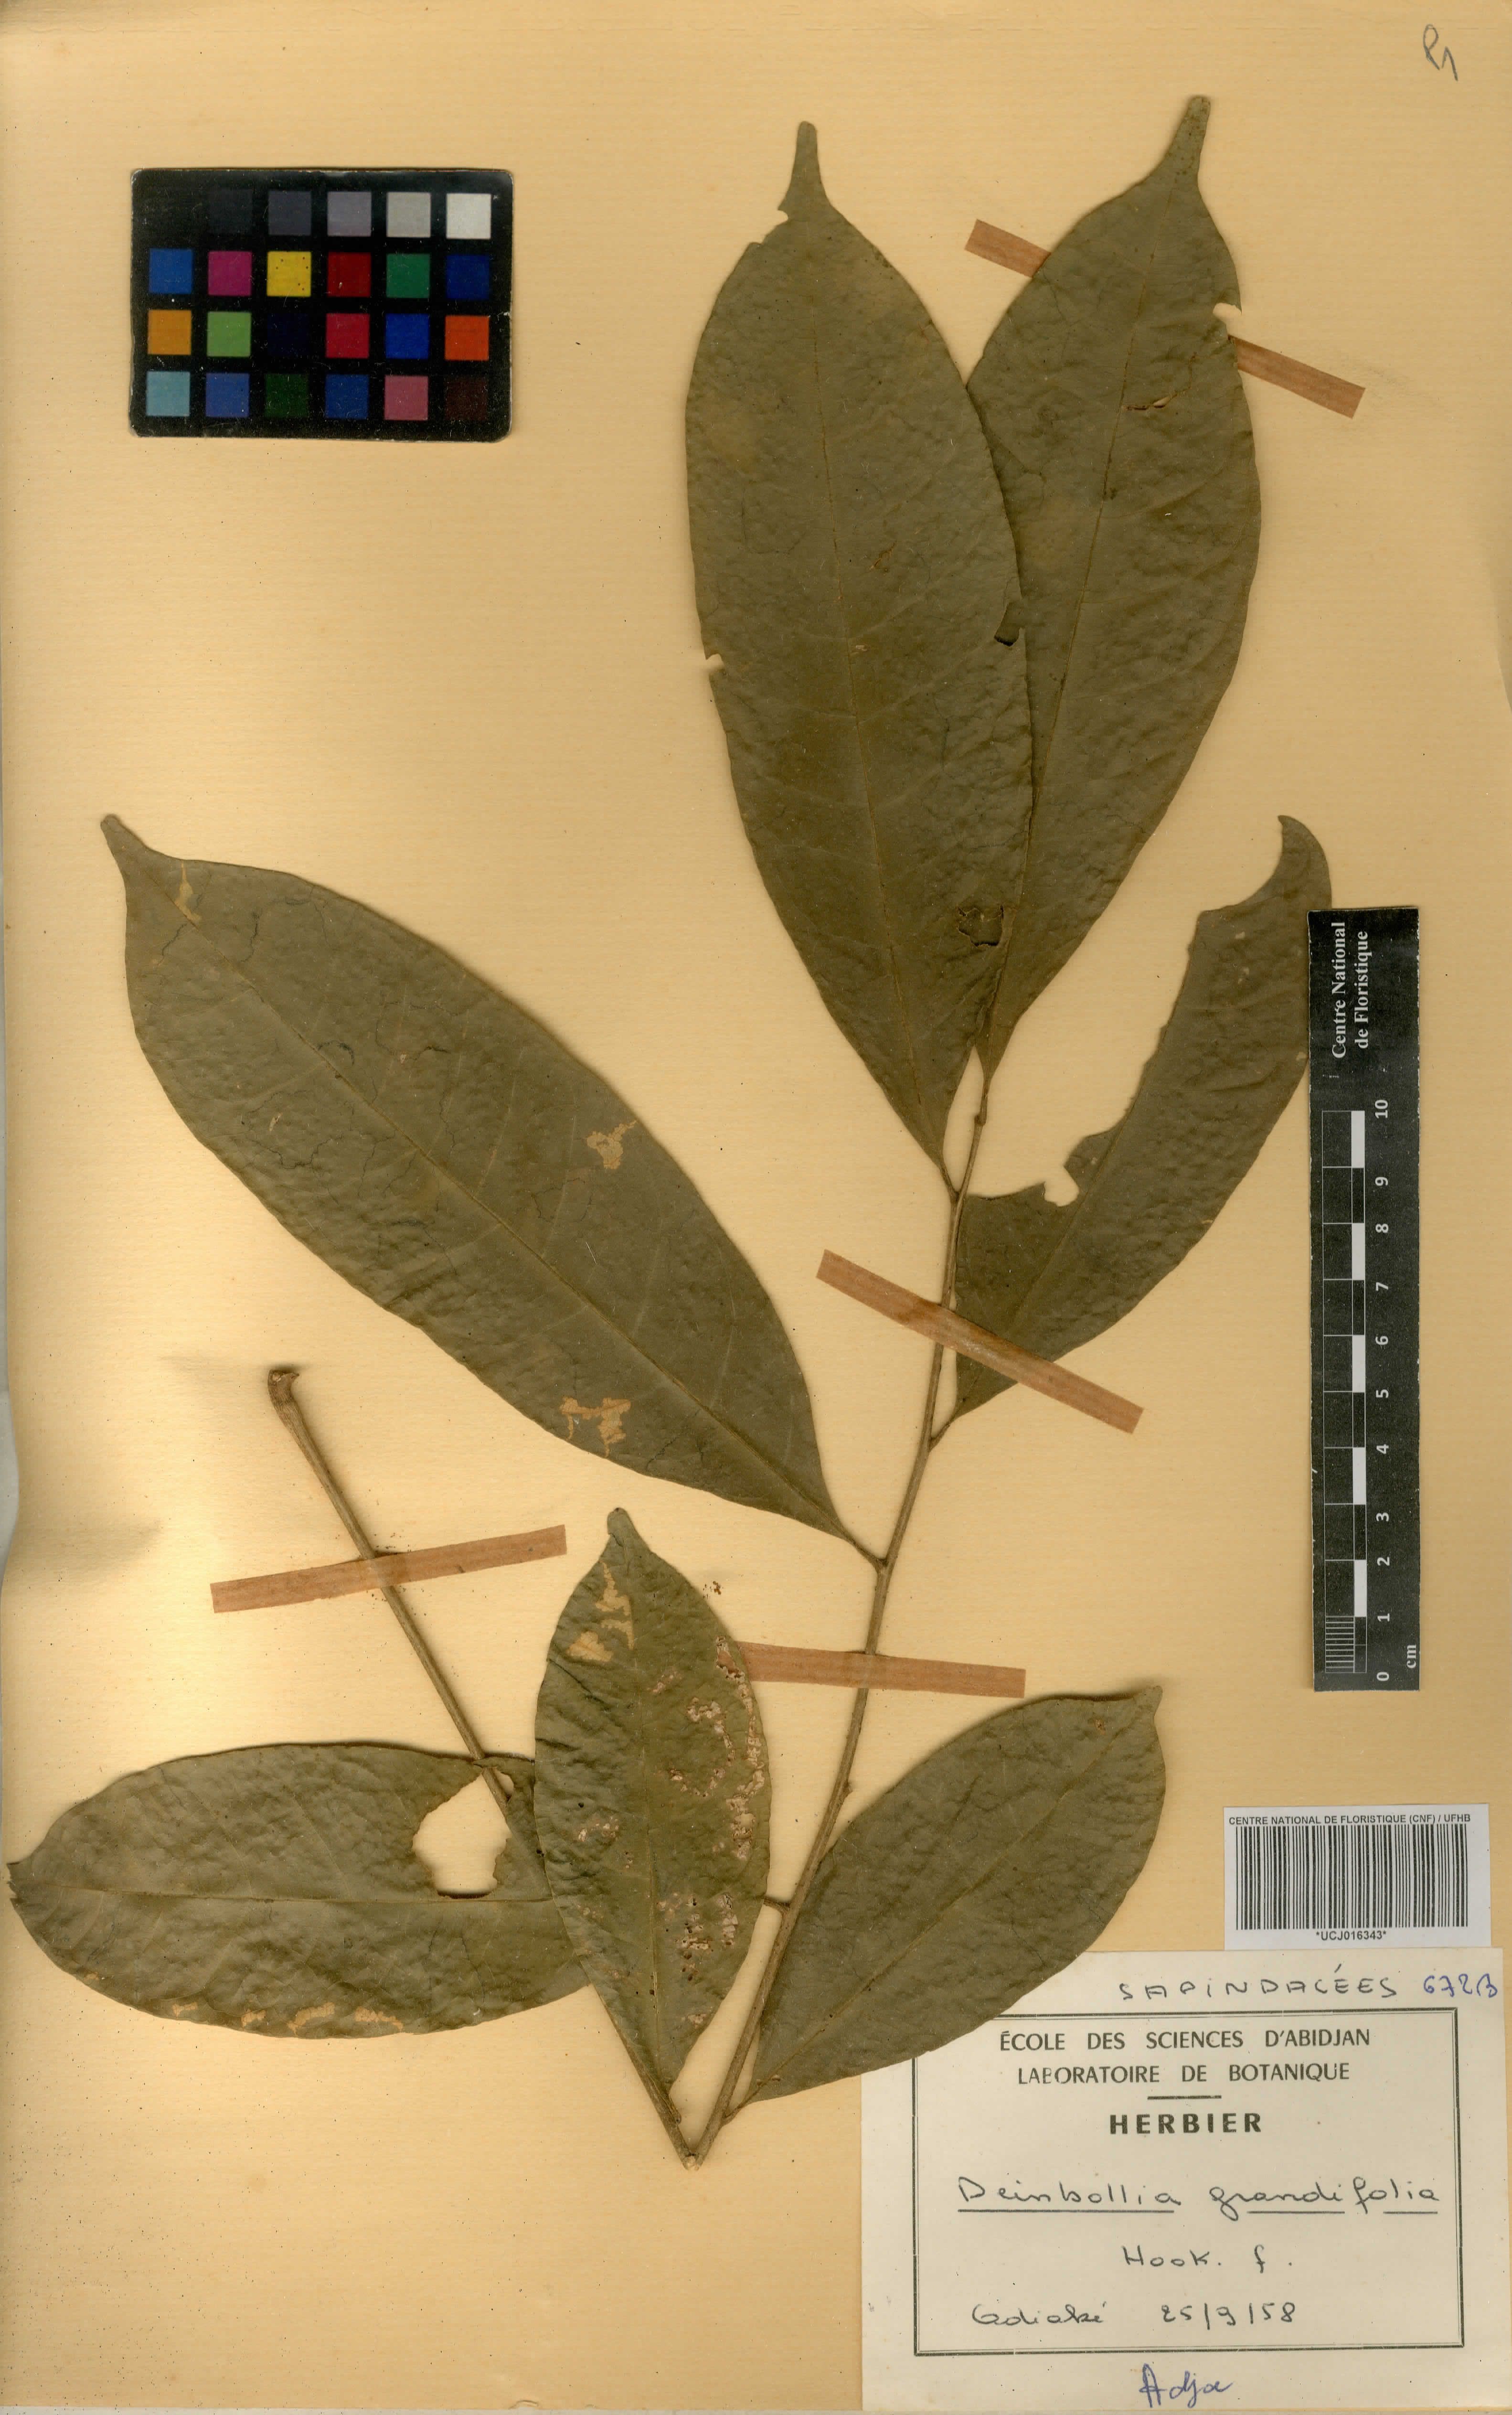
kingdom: Plantae
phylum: Tracheophyta
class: Magnoliopsida
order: Sapindales
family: Sapindaceae
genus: Deinbollia
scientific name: Deinbollia grandifolia
